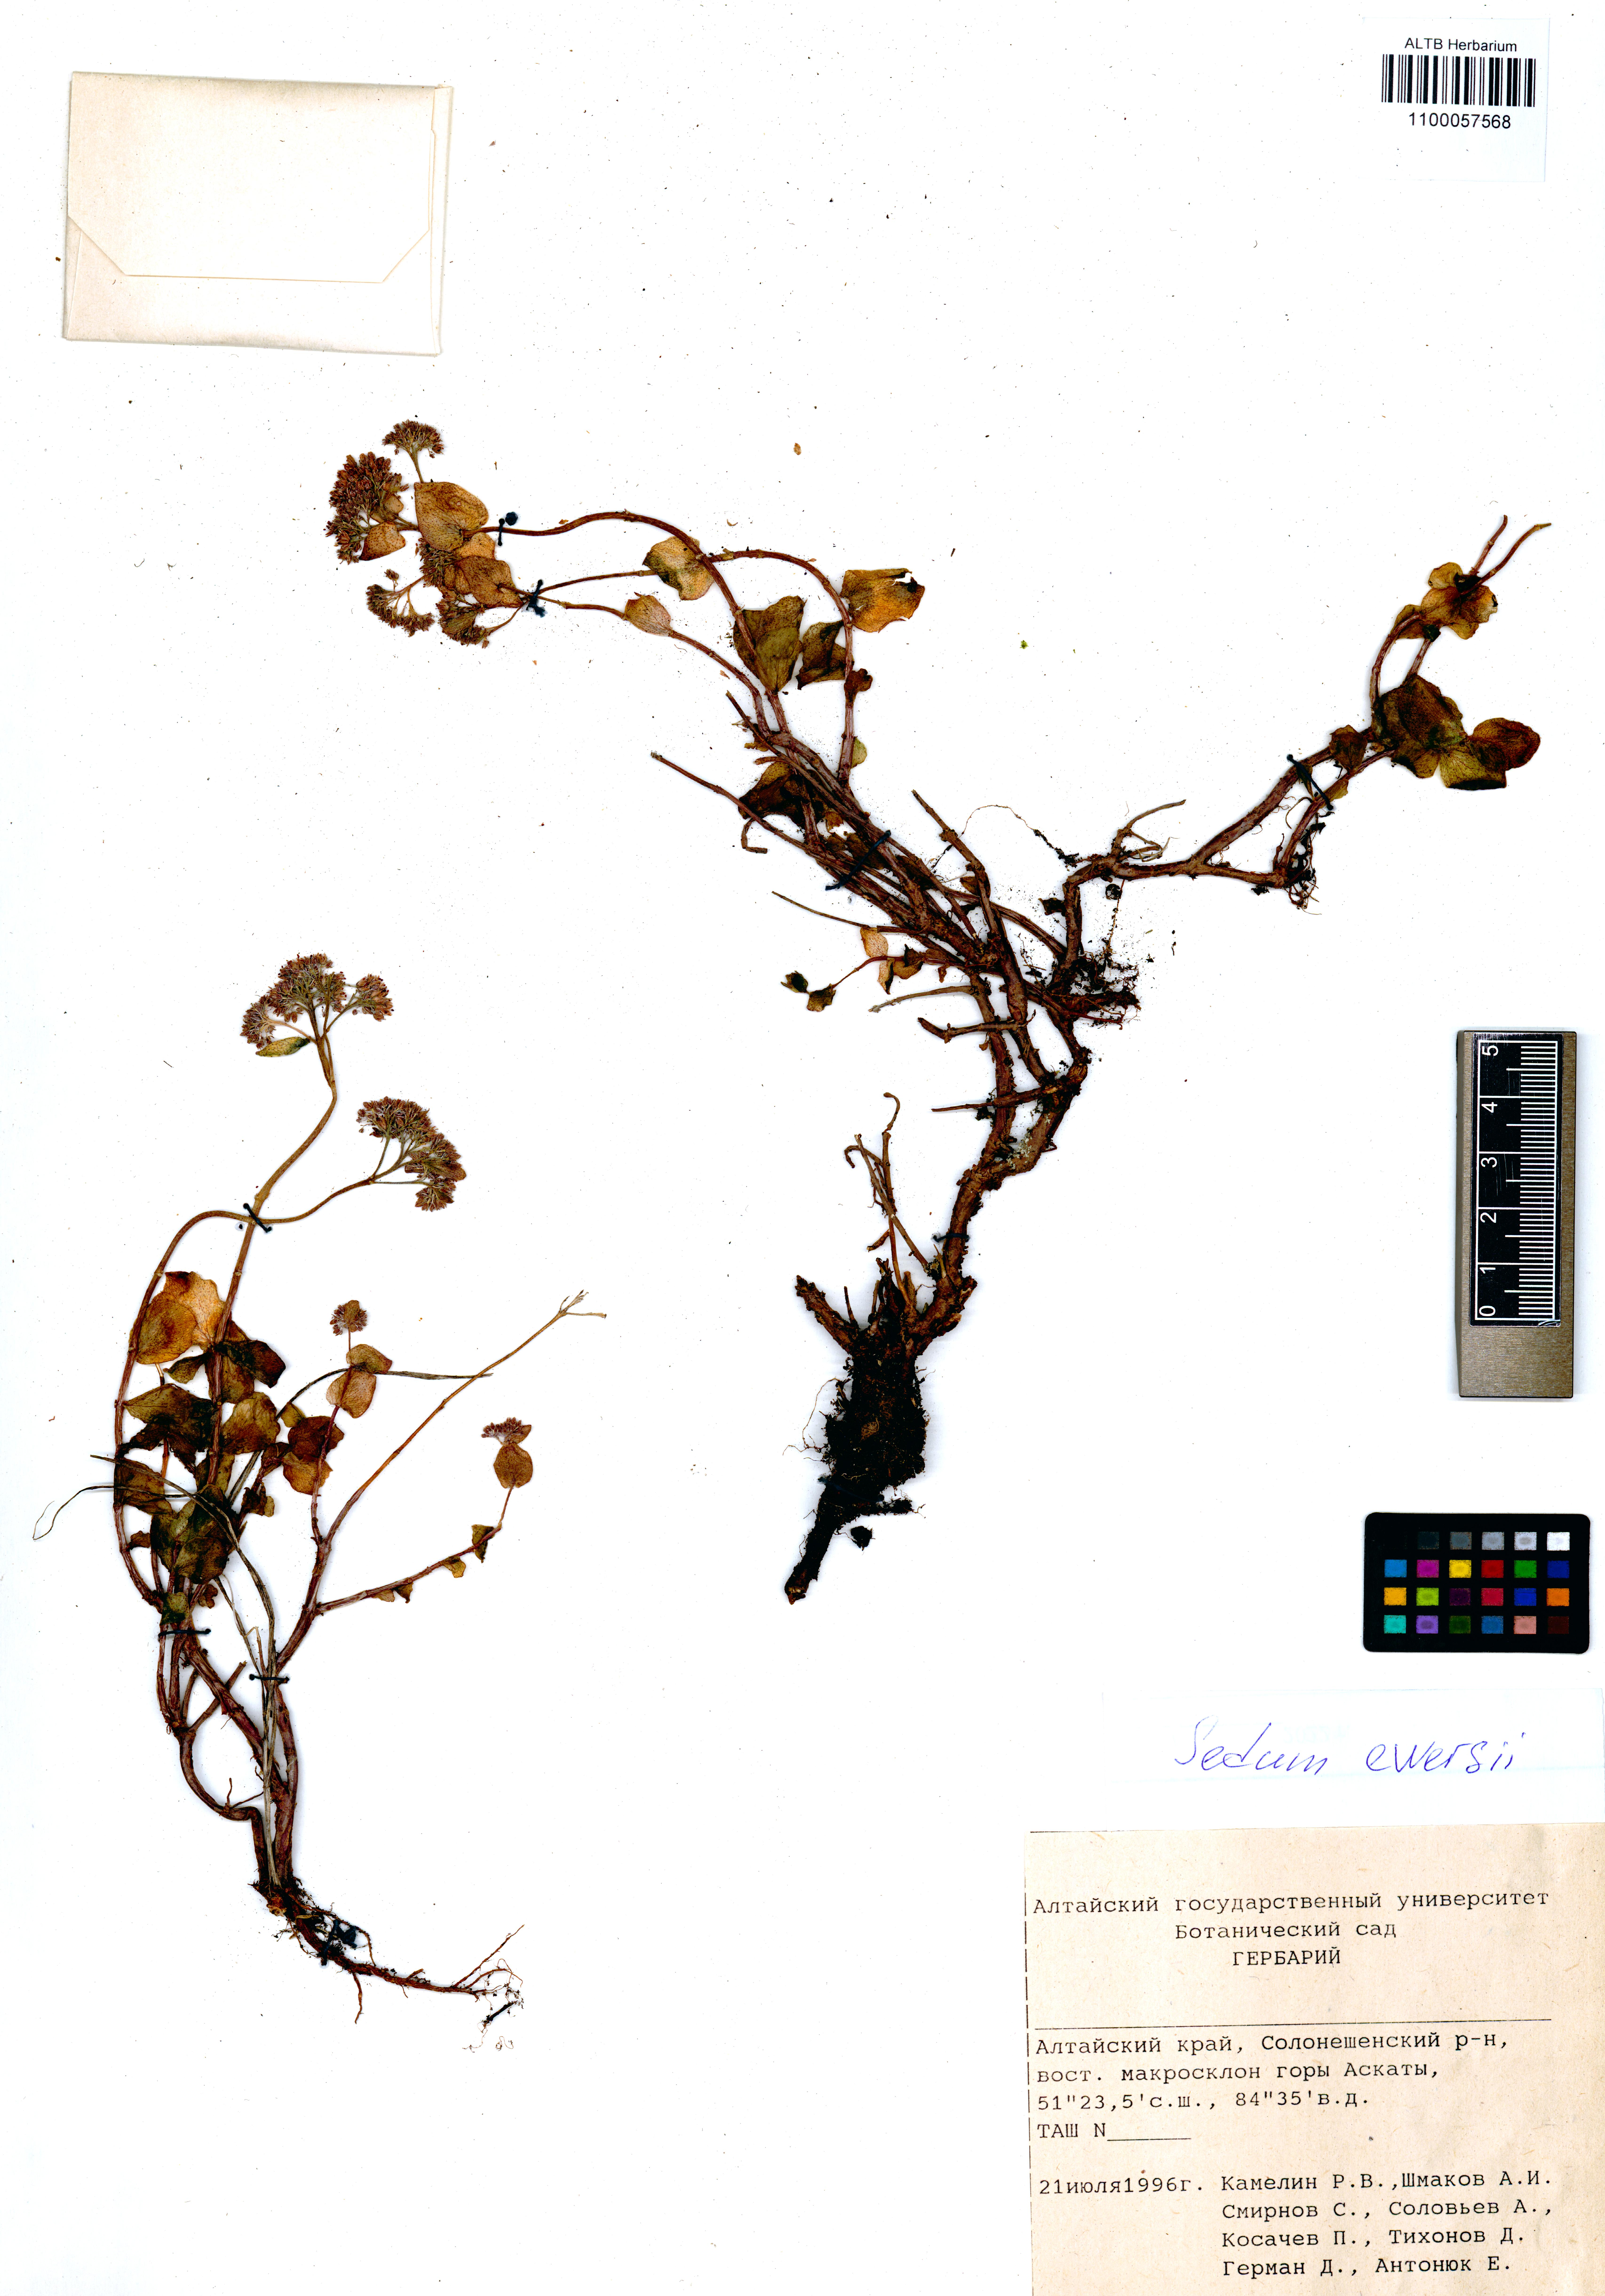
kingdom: Plantae
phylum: Tracheophyta
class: Magnoliopsida
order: Saxifragales
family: Crassulaceae
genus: Hylotelephium
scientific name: Hylotelephium ewersii
